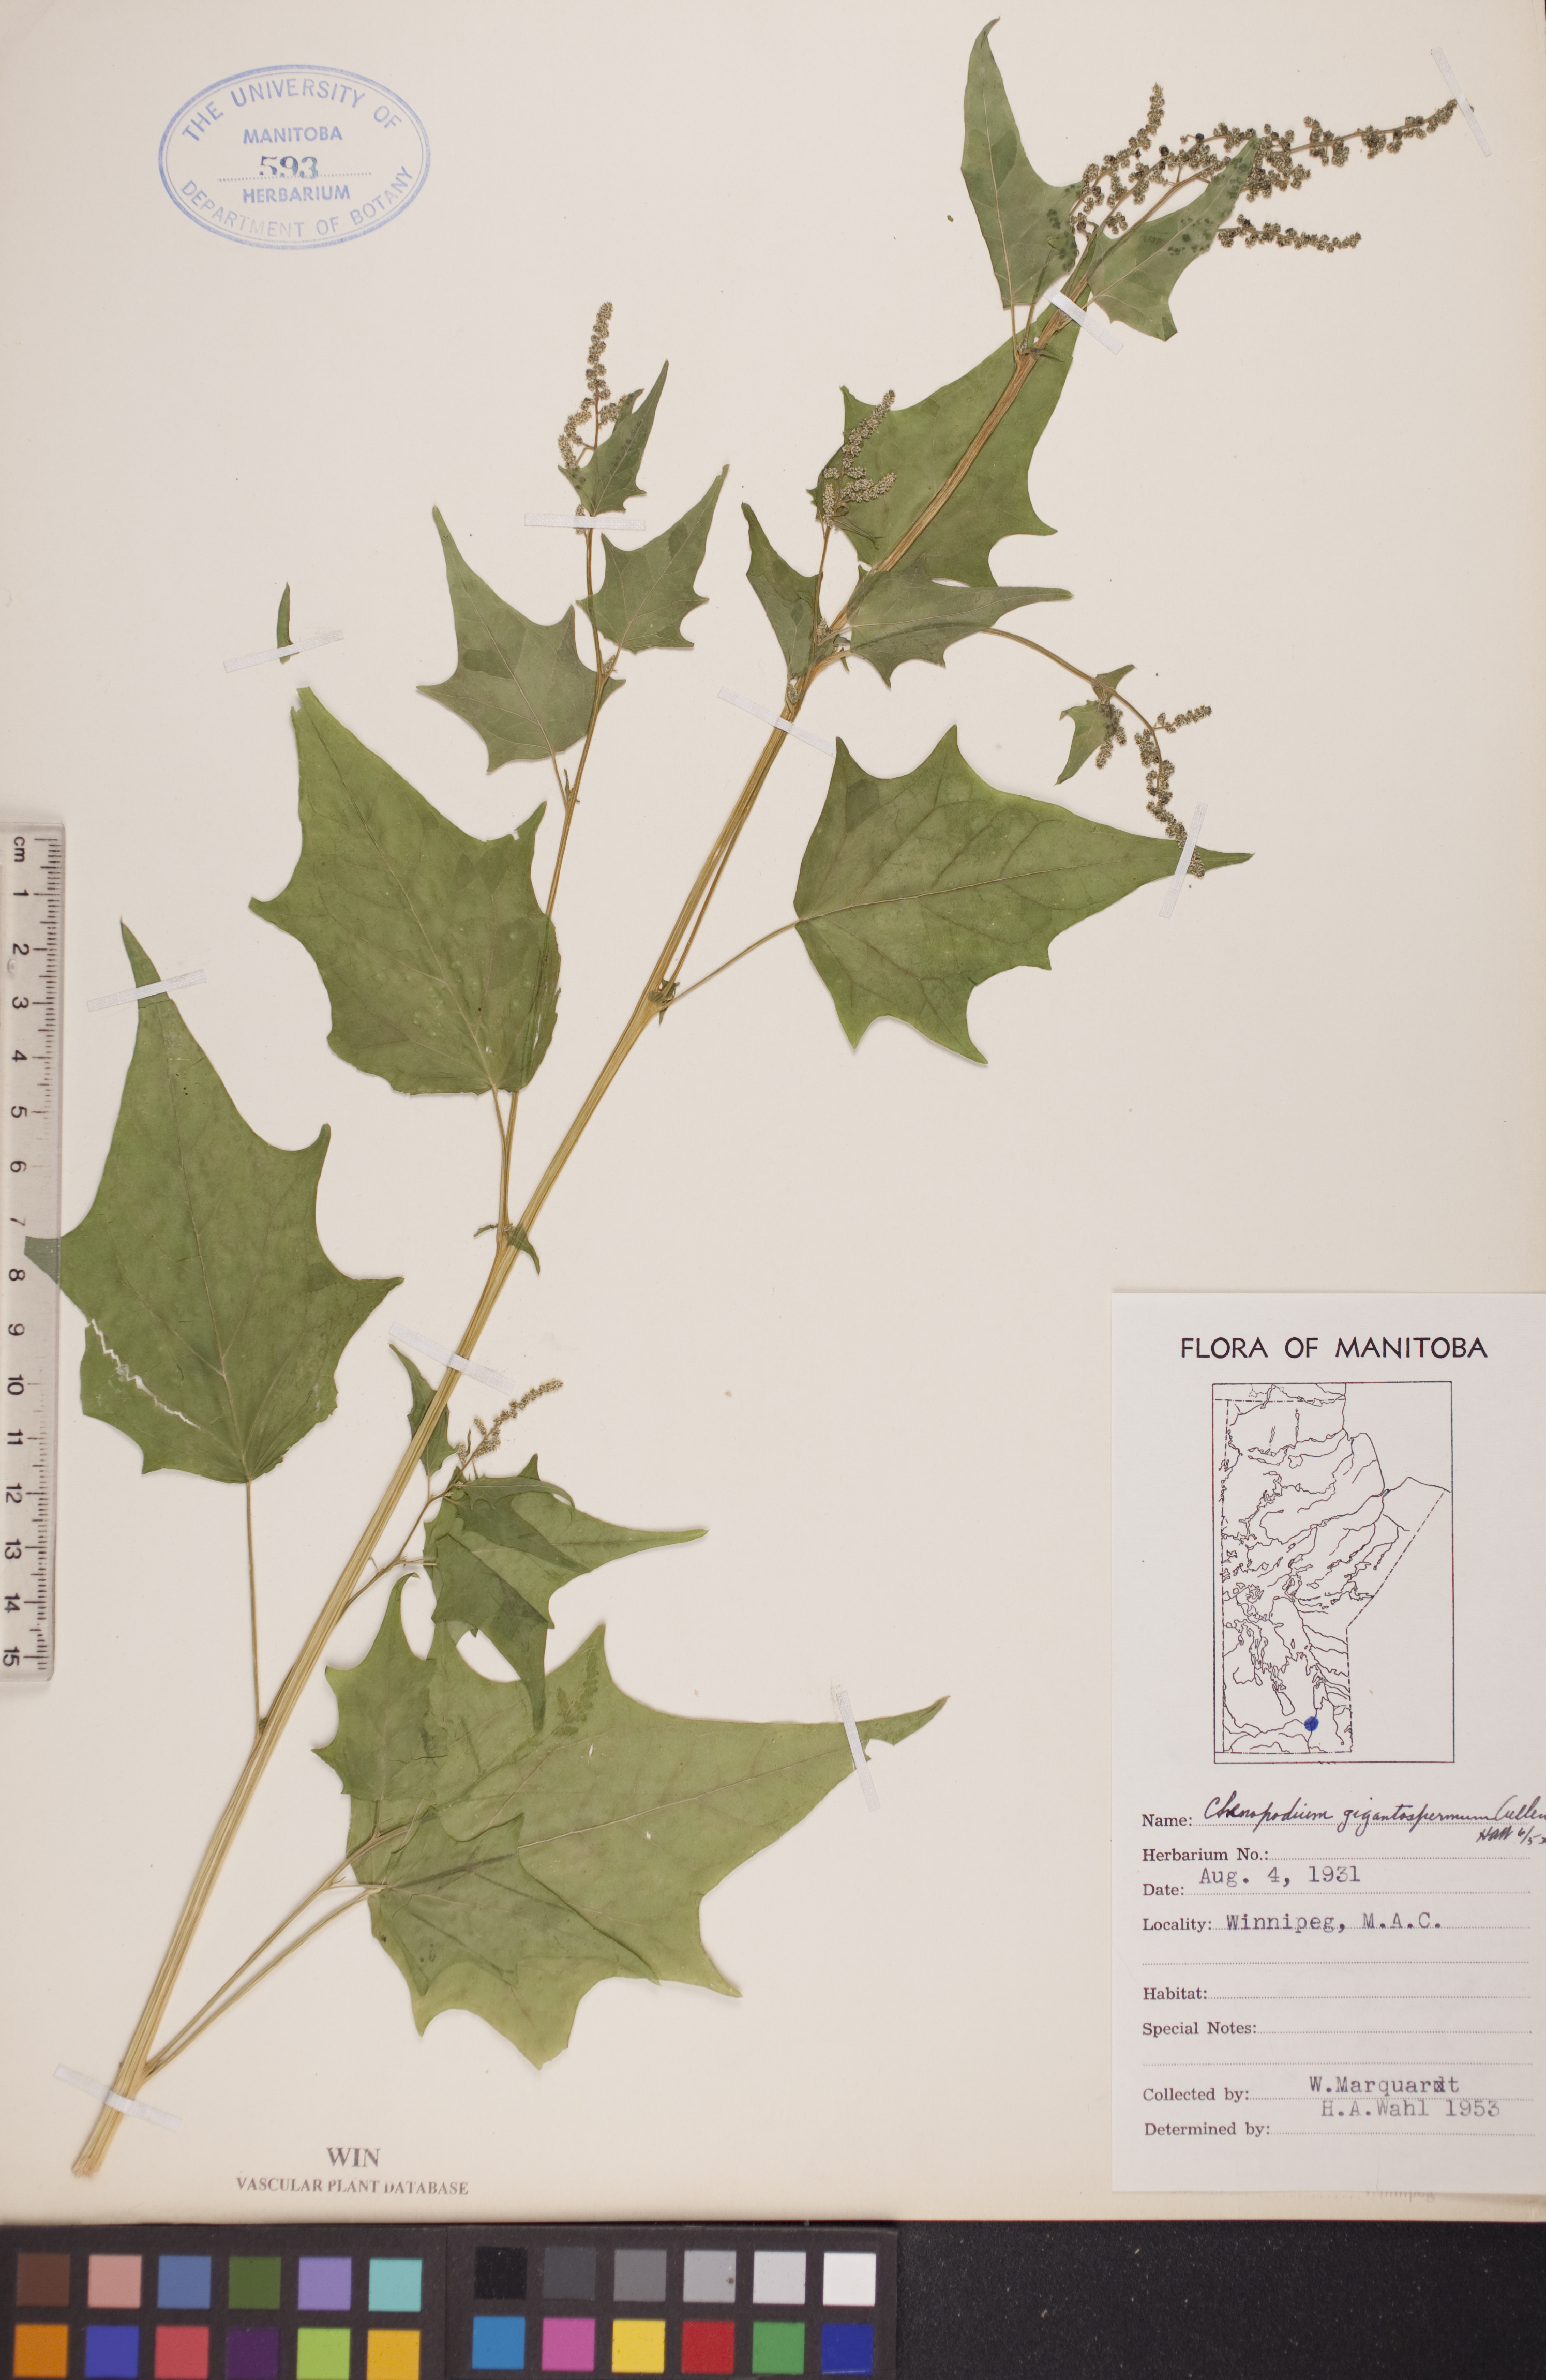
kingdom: Plantae
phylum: Tracheophyta
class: Magnoliopsida
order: Caryophyllales
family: Amaranthaceae
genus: Chenopodiastrum
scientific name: Chenopodiastrum simplex
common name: Large-seed goosefoot
